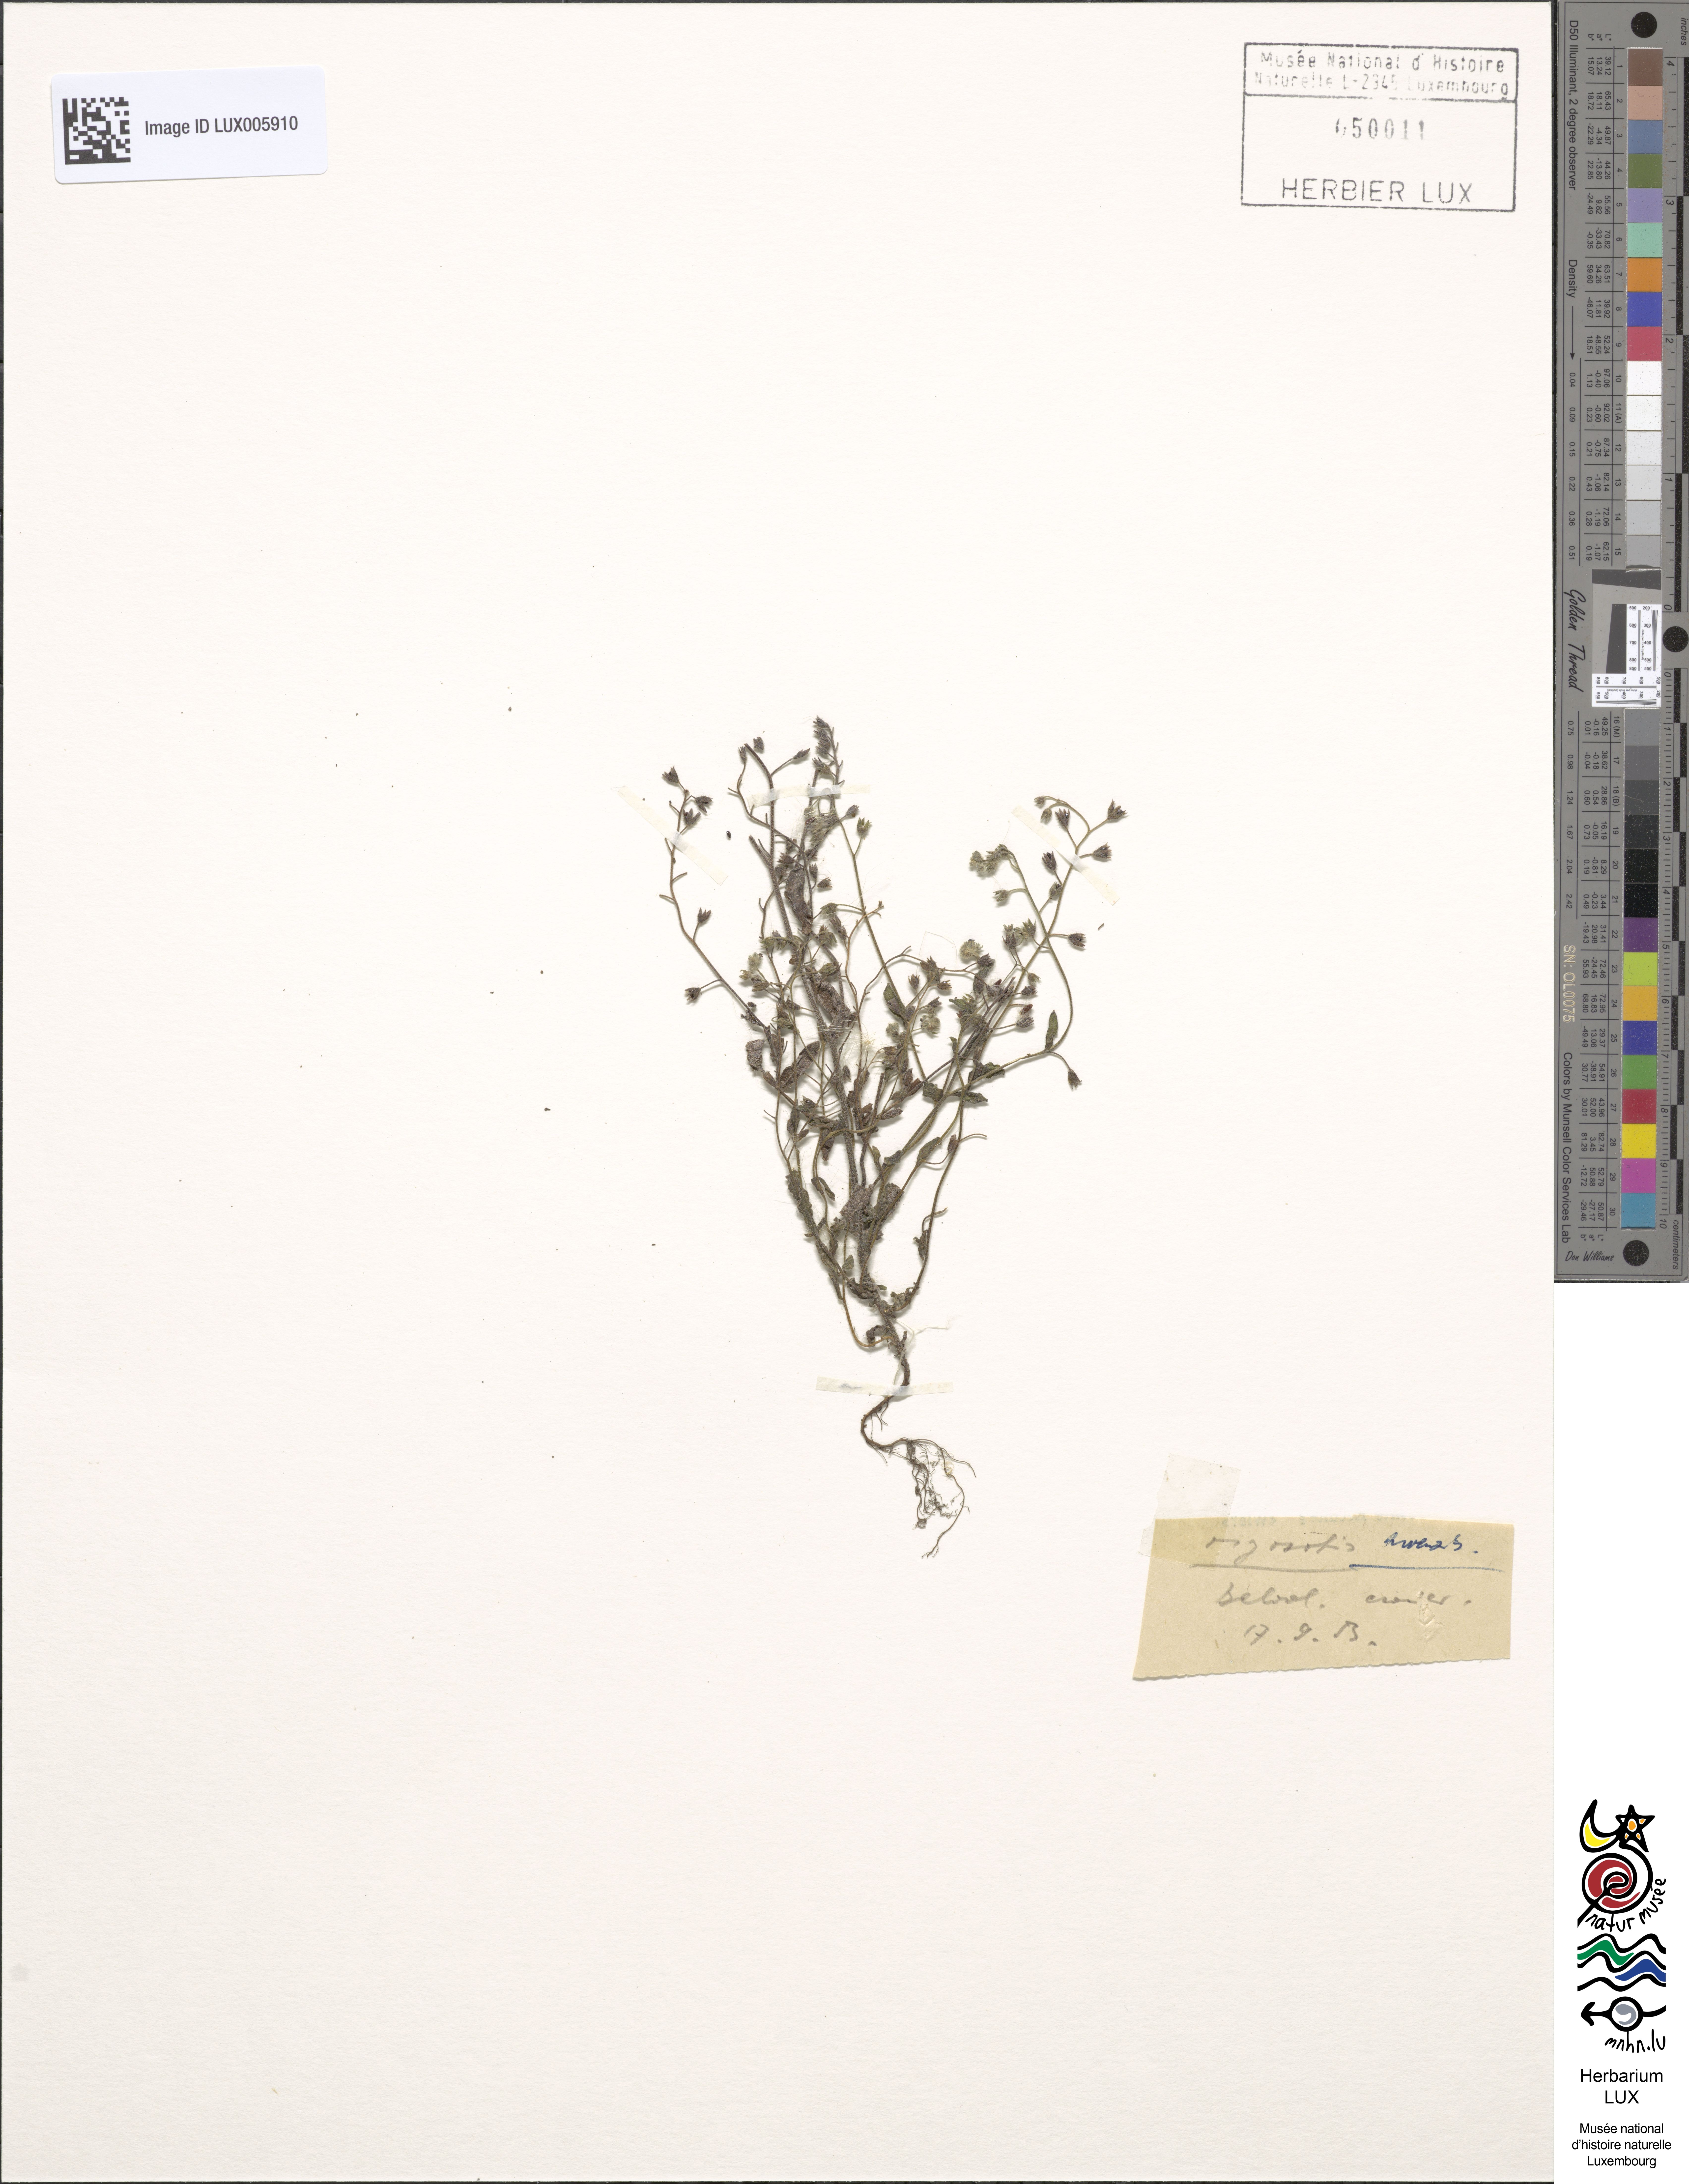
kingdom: Plantae
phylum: Tracheophyta
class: Magnoliopsida
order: Boraginales
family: Boraginaceae
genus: Myosotis
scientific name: Myosotis arvensis
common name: Field forget-me-not
